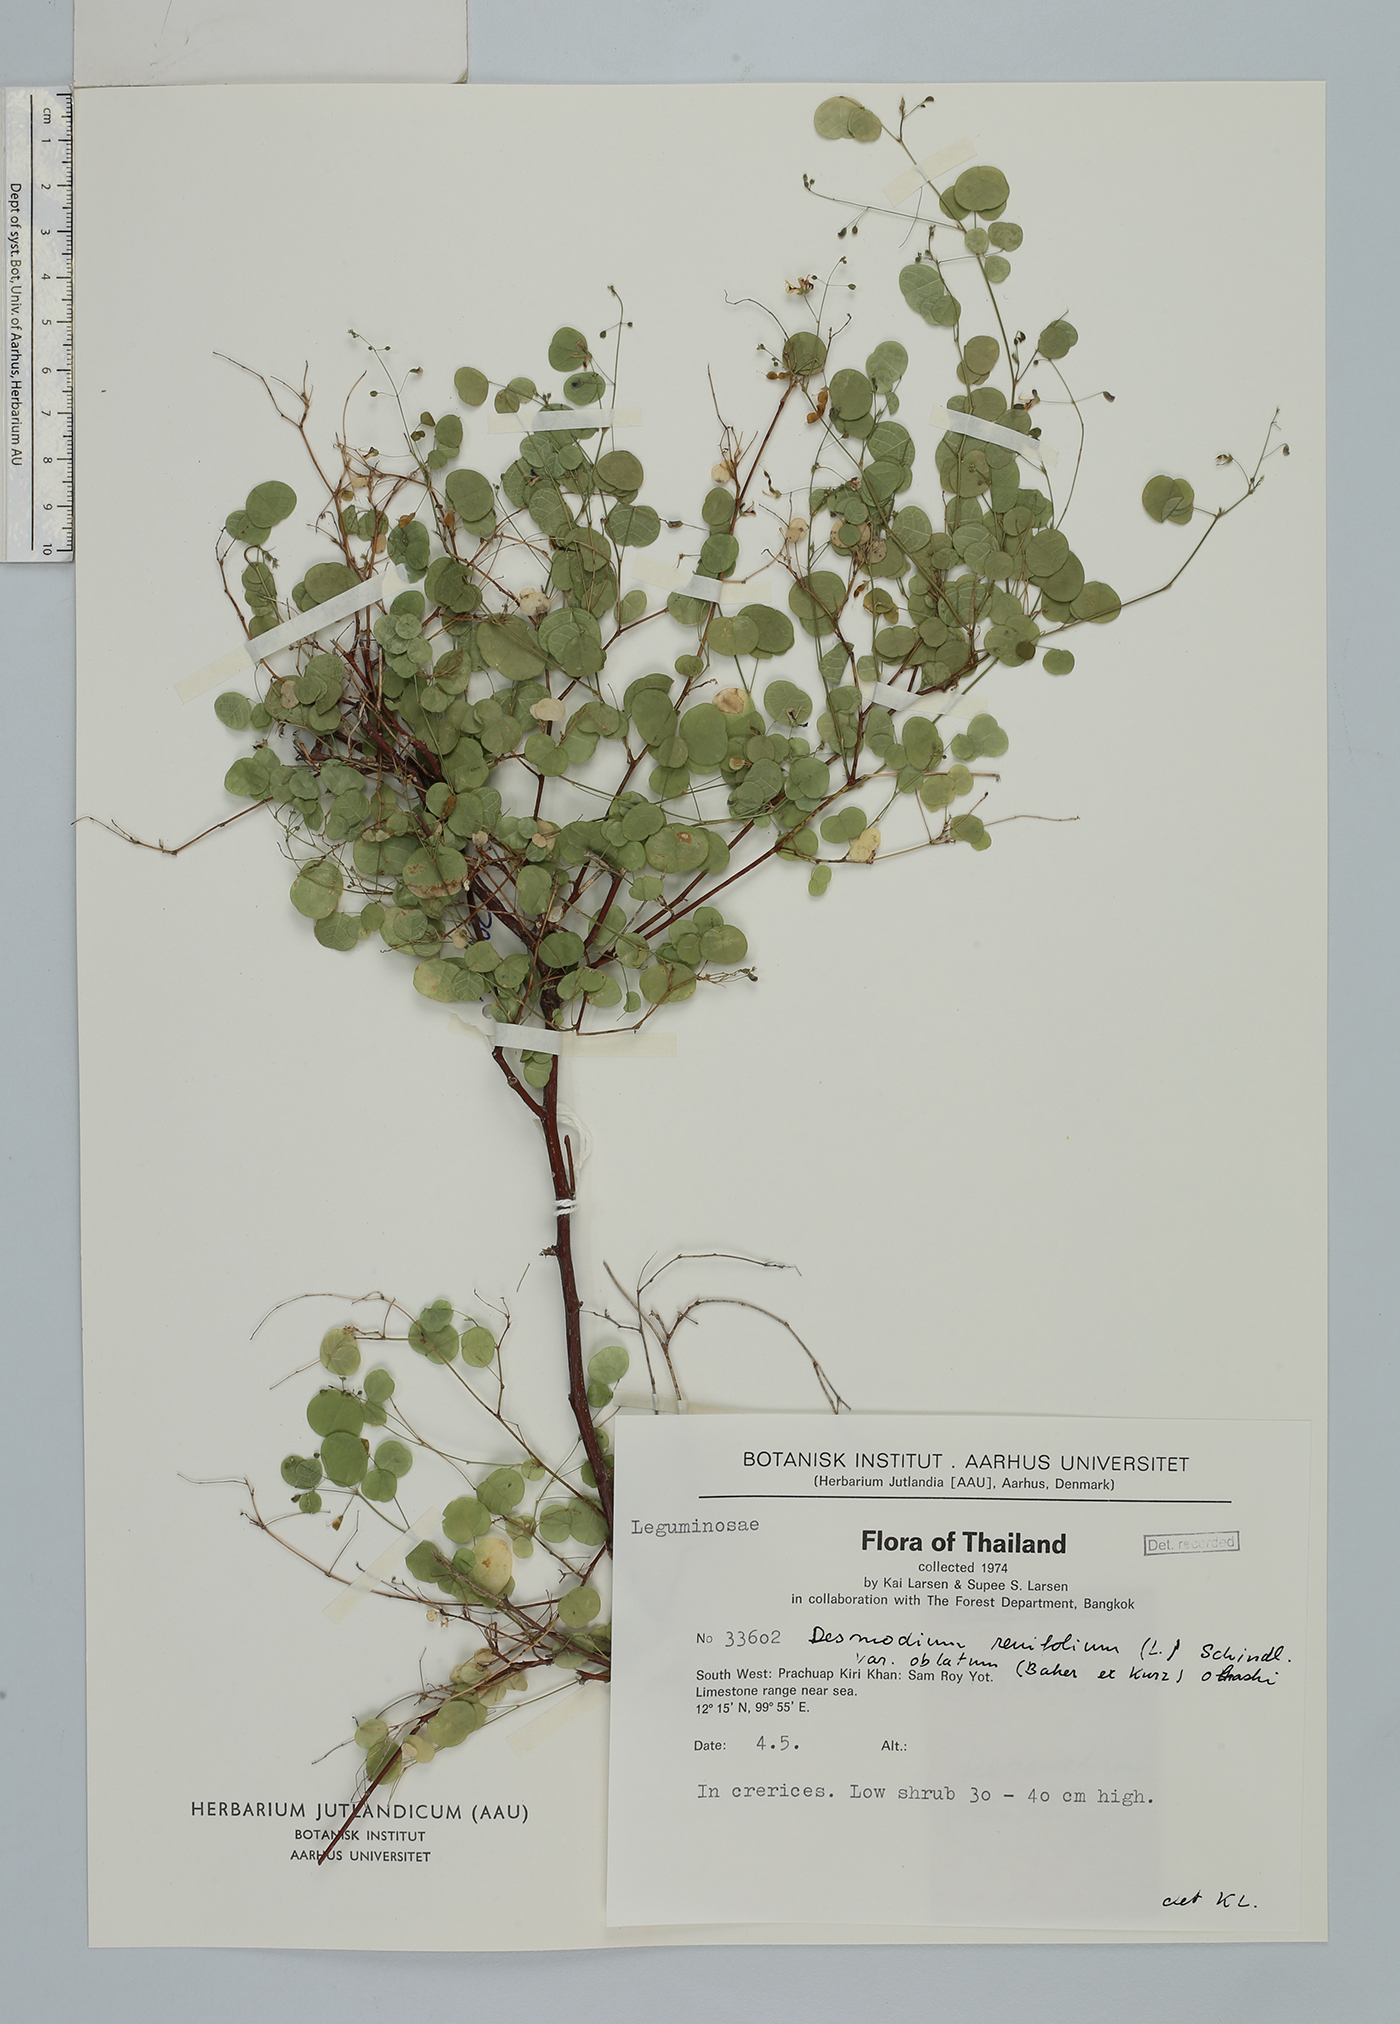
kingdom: Plantae
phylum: Tracheophyta
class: Magnoliopsida
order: Fabales
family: Fabaceae
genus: Huangtcia
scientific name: Huangtcia renifolia
